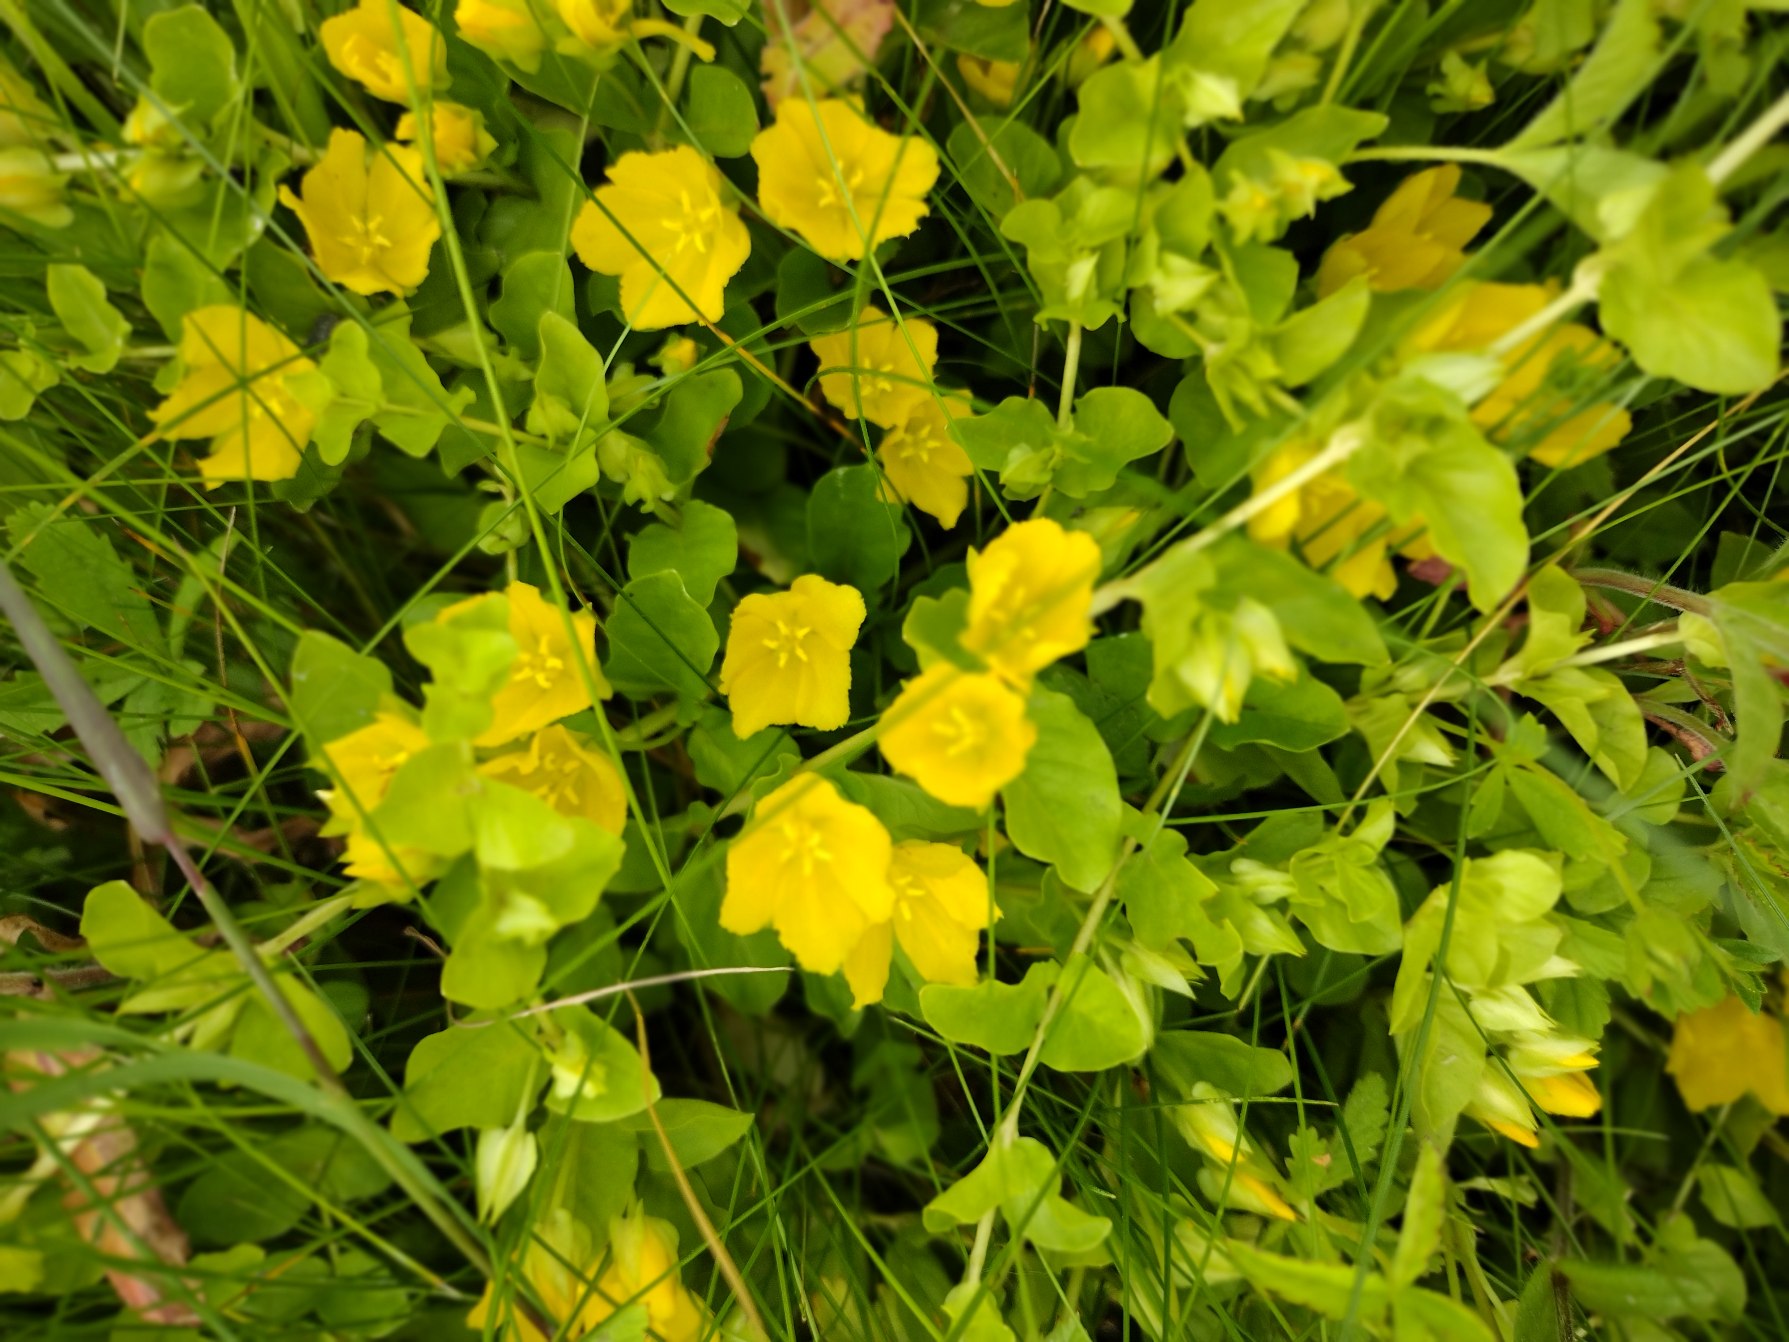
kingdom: Plantae
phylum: Tracheophyta
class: Magnoliopsida
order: Ericales
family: Primulaceae
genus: Lysimachia
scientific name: Lysimachia nummularia
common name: Pengebladet fredløs
